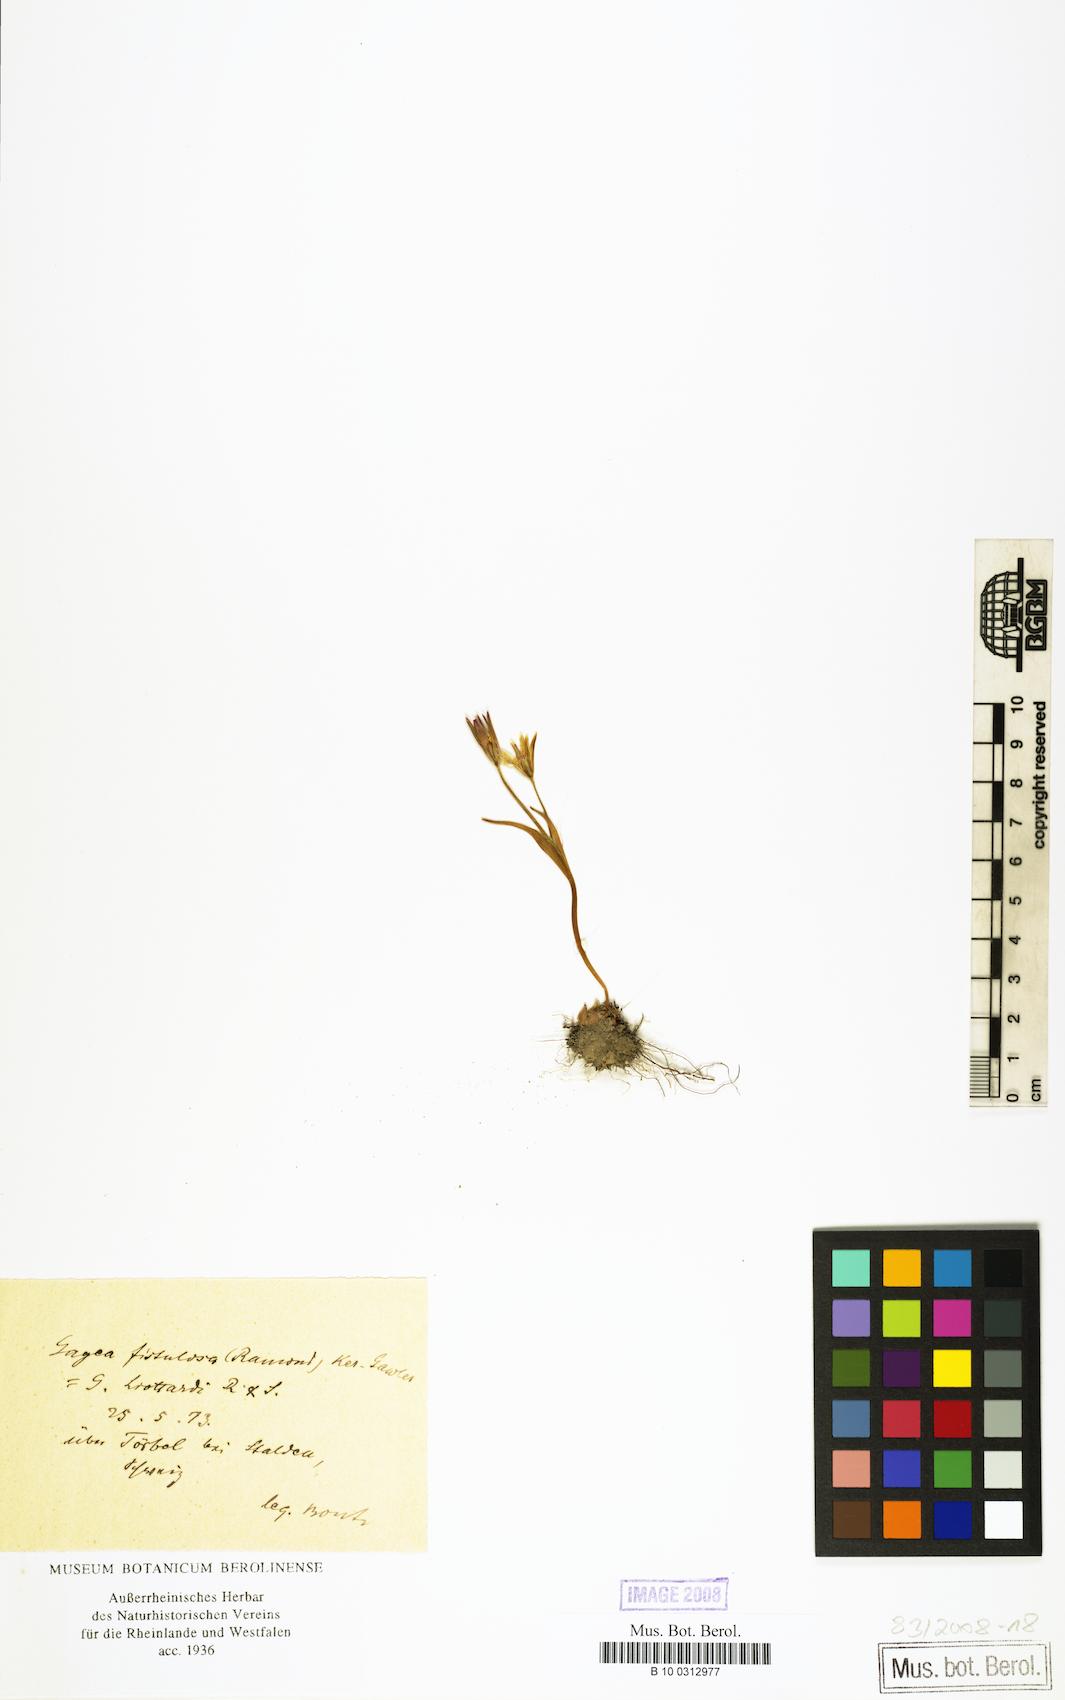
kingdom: Plantae
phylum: Tracheophyta
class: Liliopsida
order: Liliales
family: Liliaceae
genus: Gagea
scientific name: Gagea
